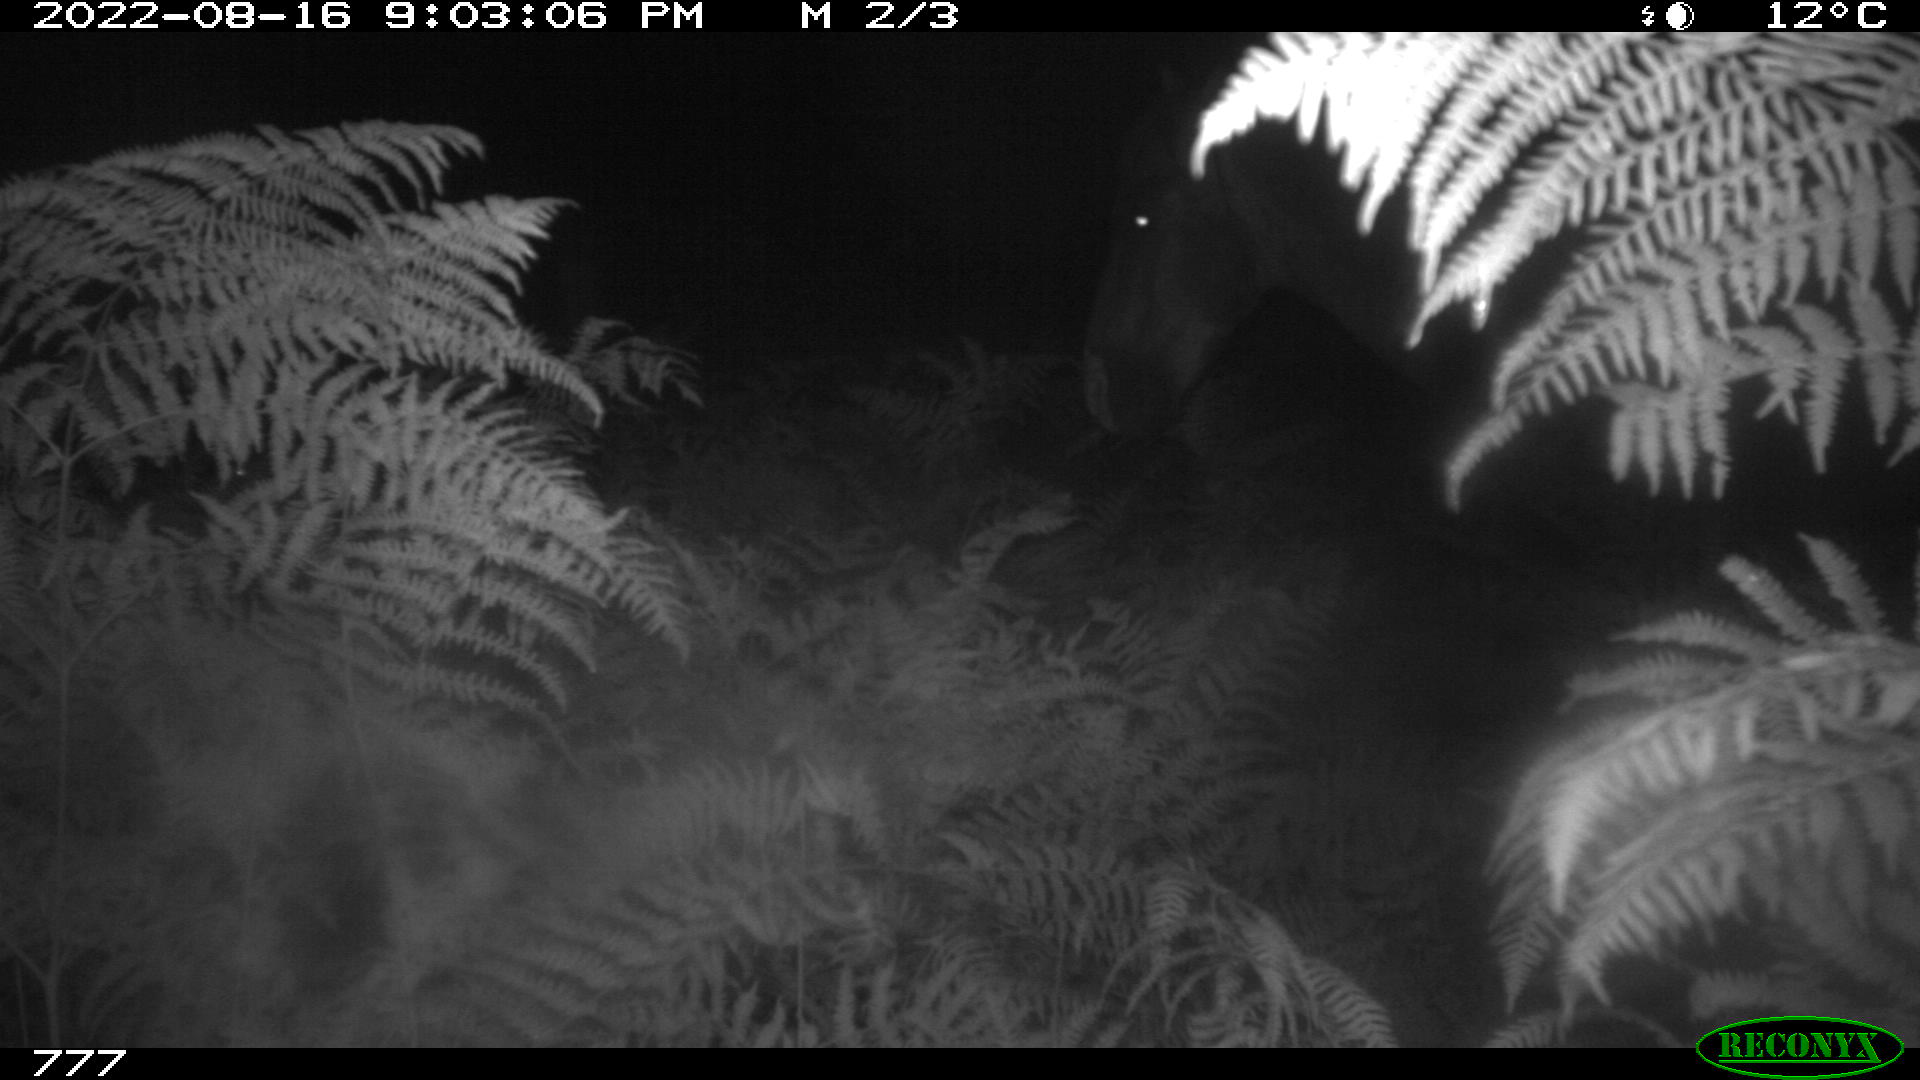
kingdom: Animalia
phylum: Chordata
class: Mammalia
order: Perissodactyla
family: Equidae
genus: Equus
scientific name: Equus caballus
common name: Horse
